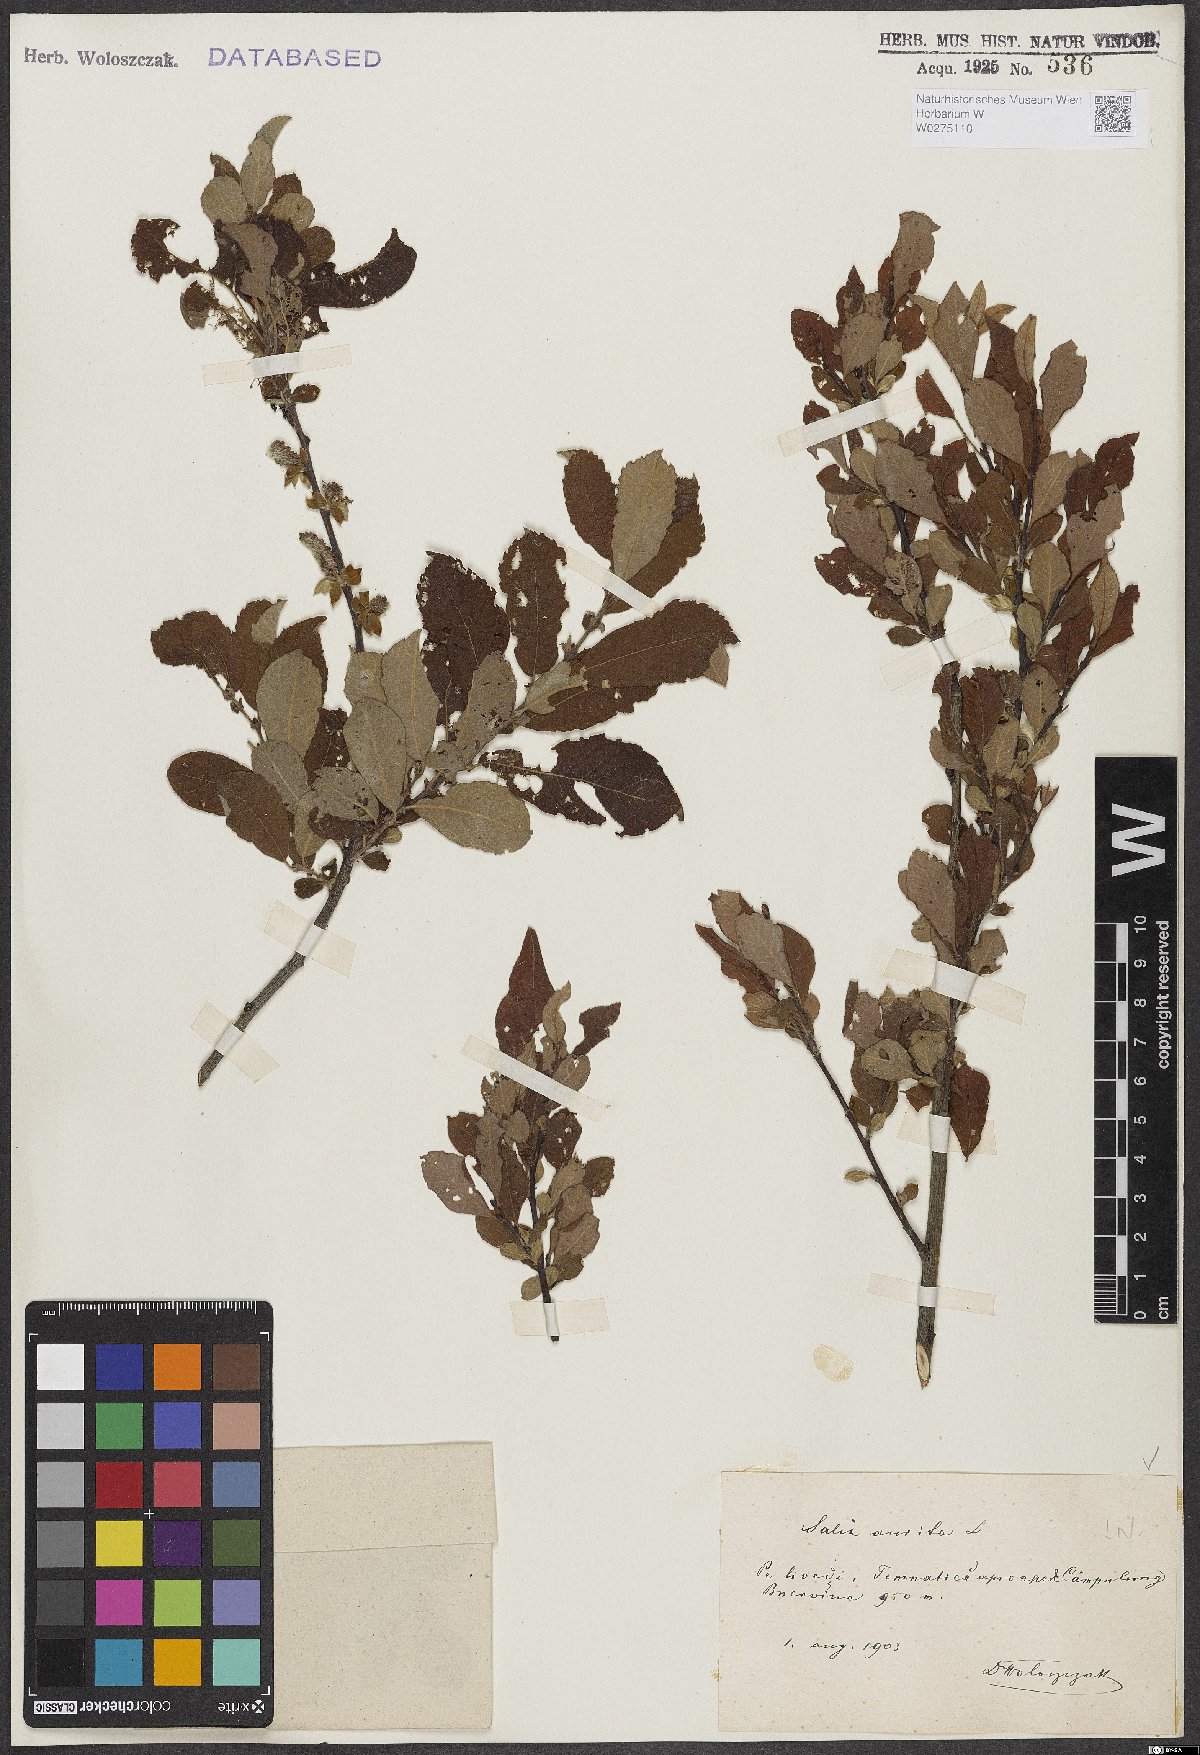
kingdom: Plantae
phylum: Tracheophyta
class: Magnoliopsida
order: Malpighiales
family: Salicaceae
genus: Salix
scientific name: Salix aurita
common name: Eared willow
